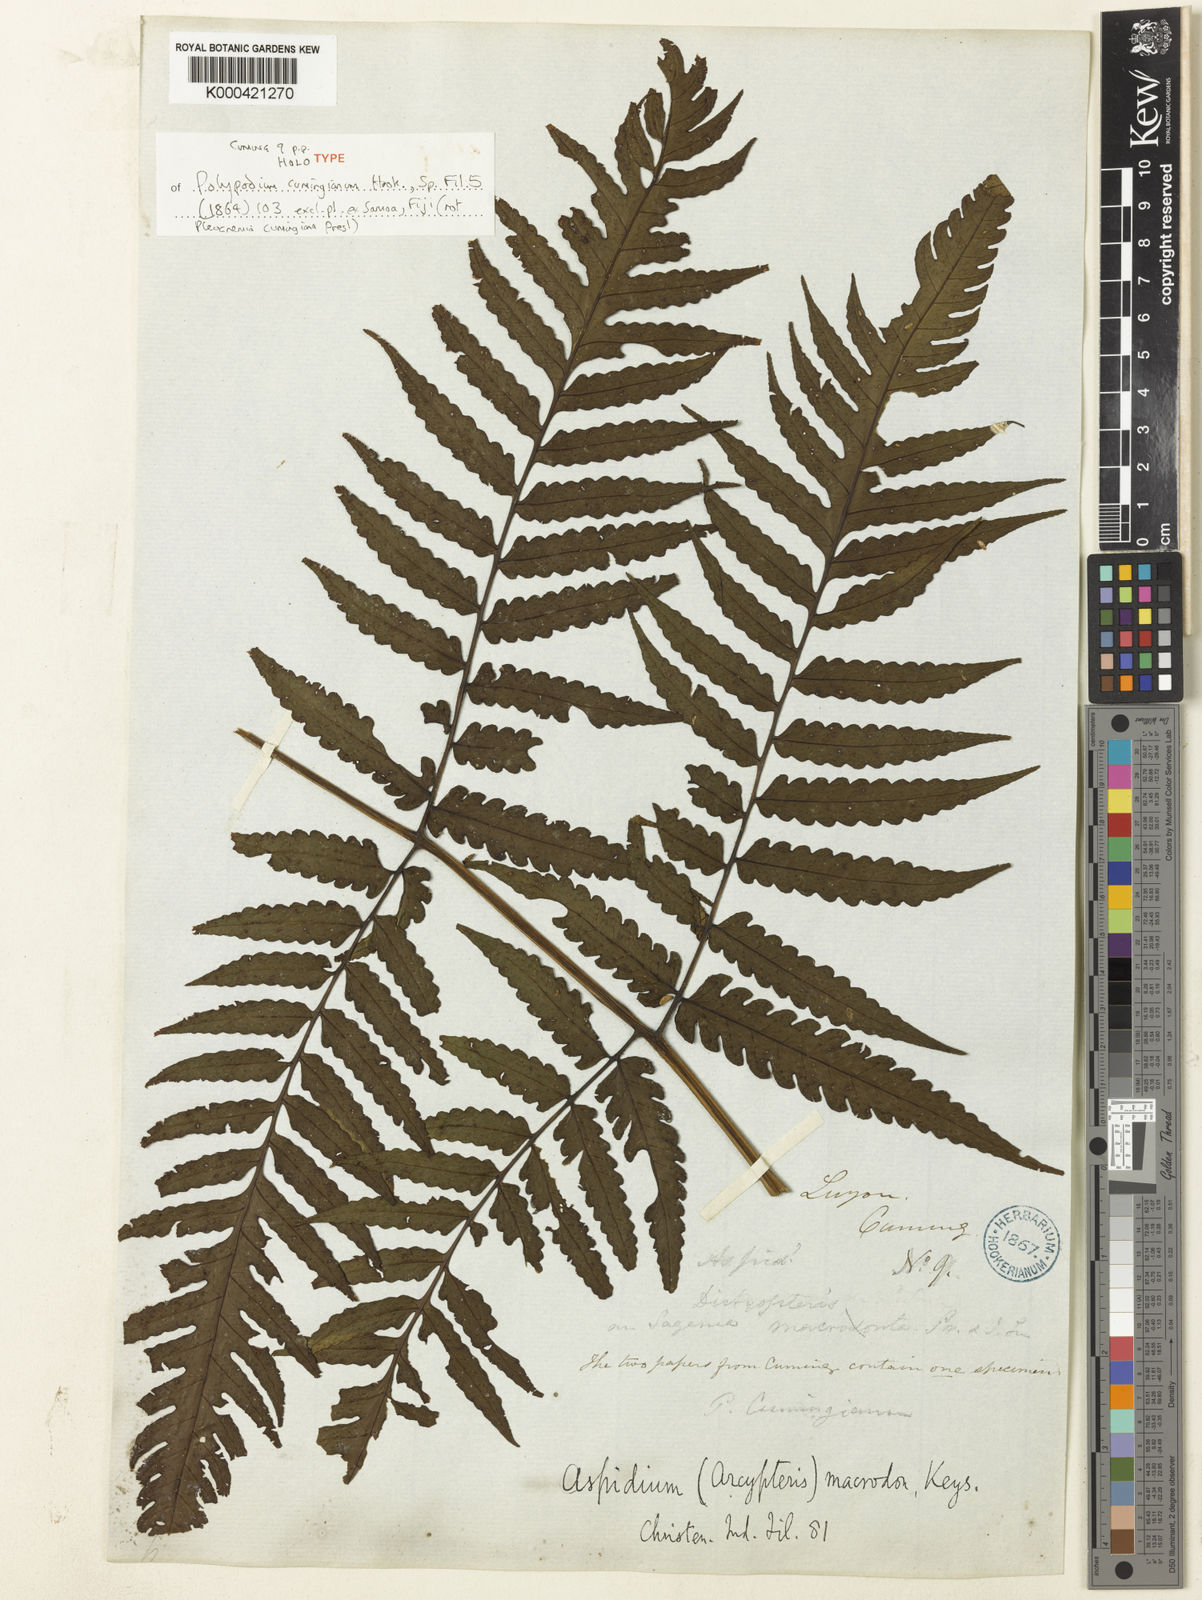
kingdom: Plantae
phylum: Tracheophyta
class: Polypodiopsida
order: Polypodiales
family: Dryopteridaceae
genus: Pleocnemia
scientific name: Pleocnemia
